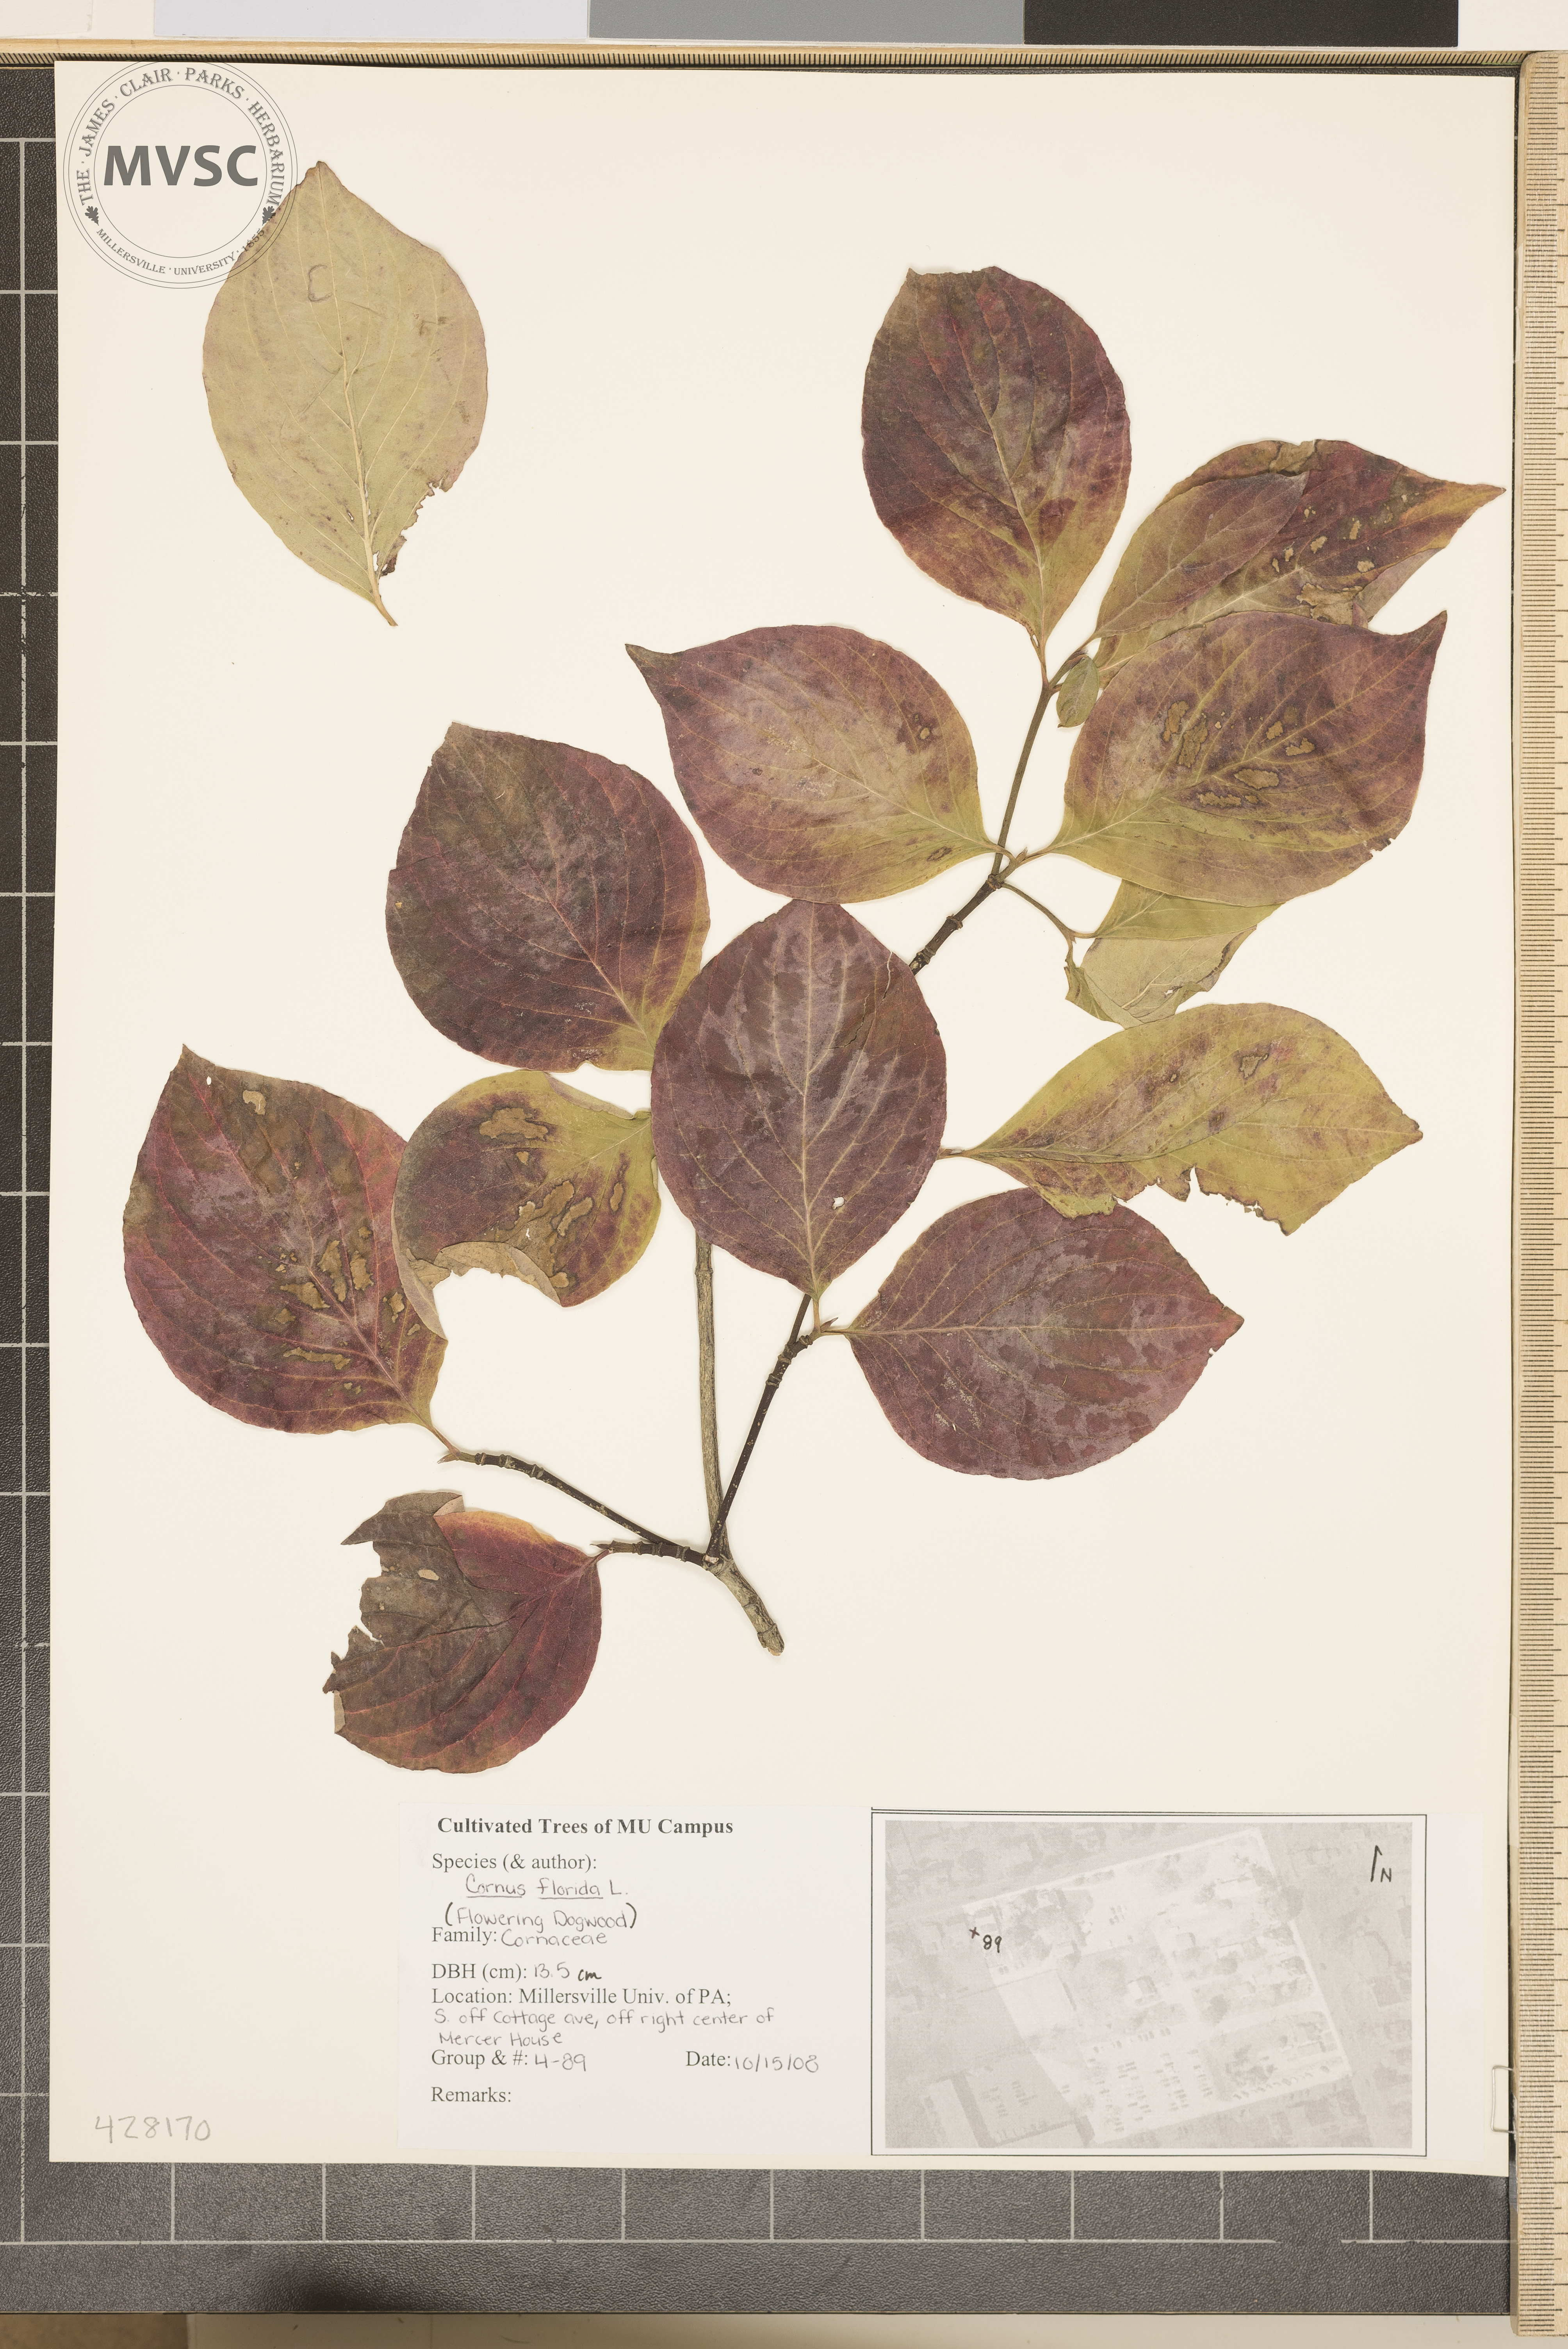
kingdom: Plantae
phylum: Tracheophyta
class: Magnoliopsida
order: Cornales
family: Cornaceae
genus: Cornus
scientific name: Cornus florida
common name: Flowering Dogwood
